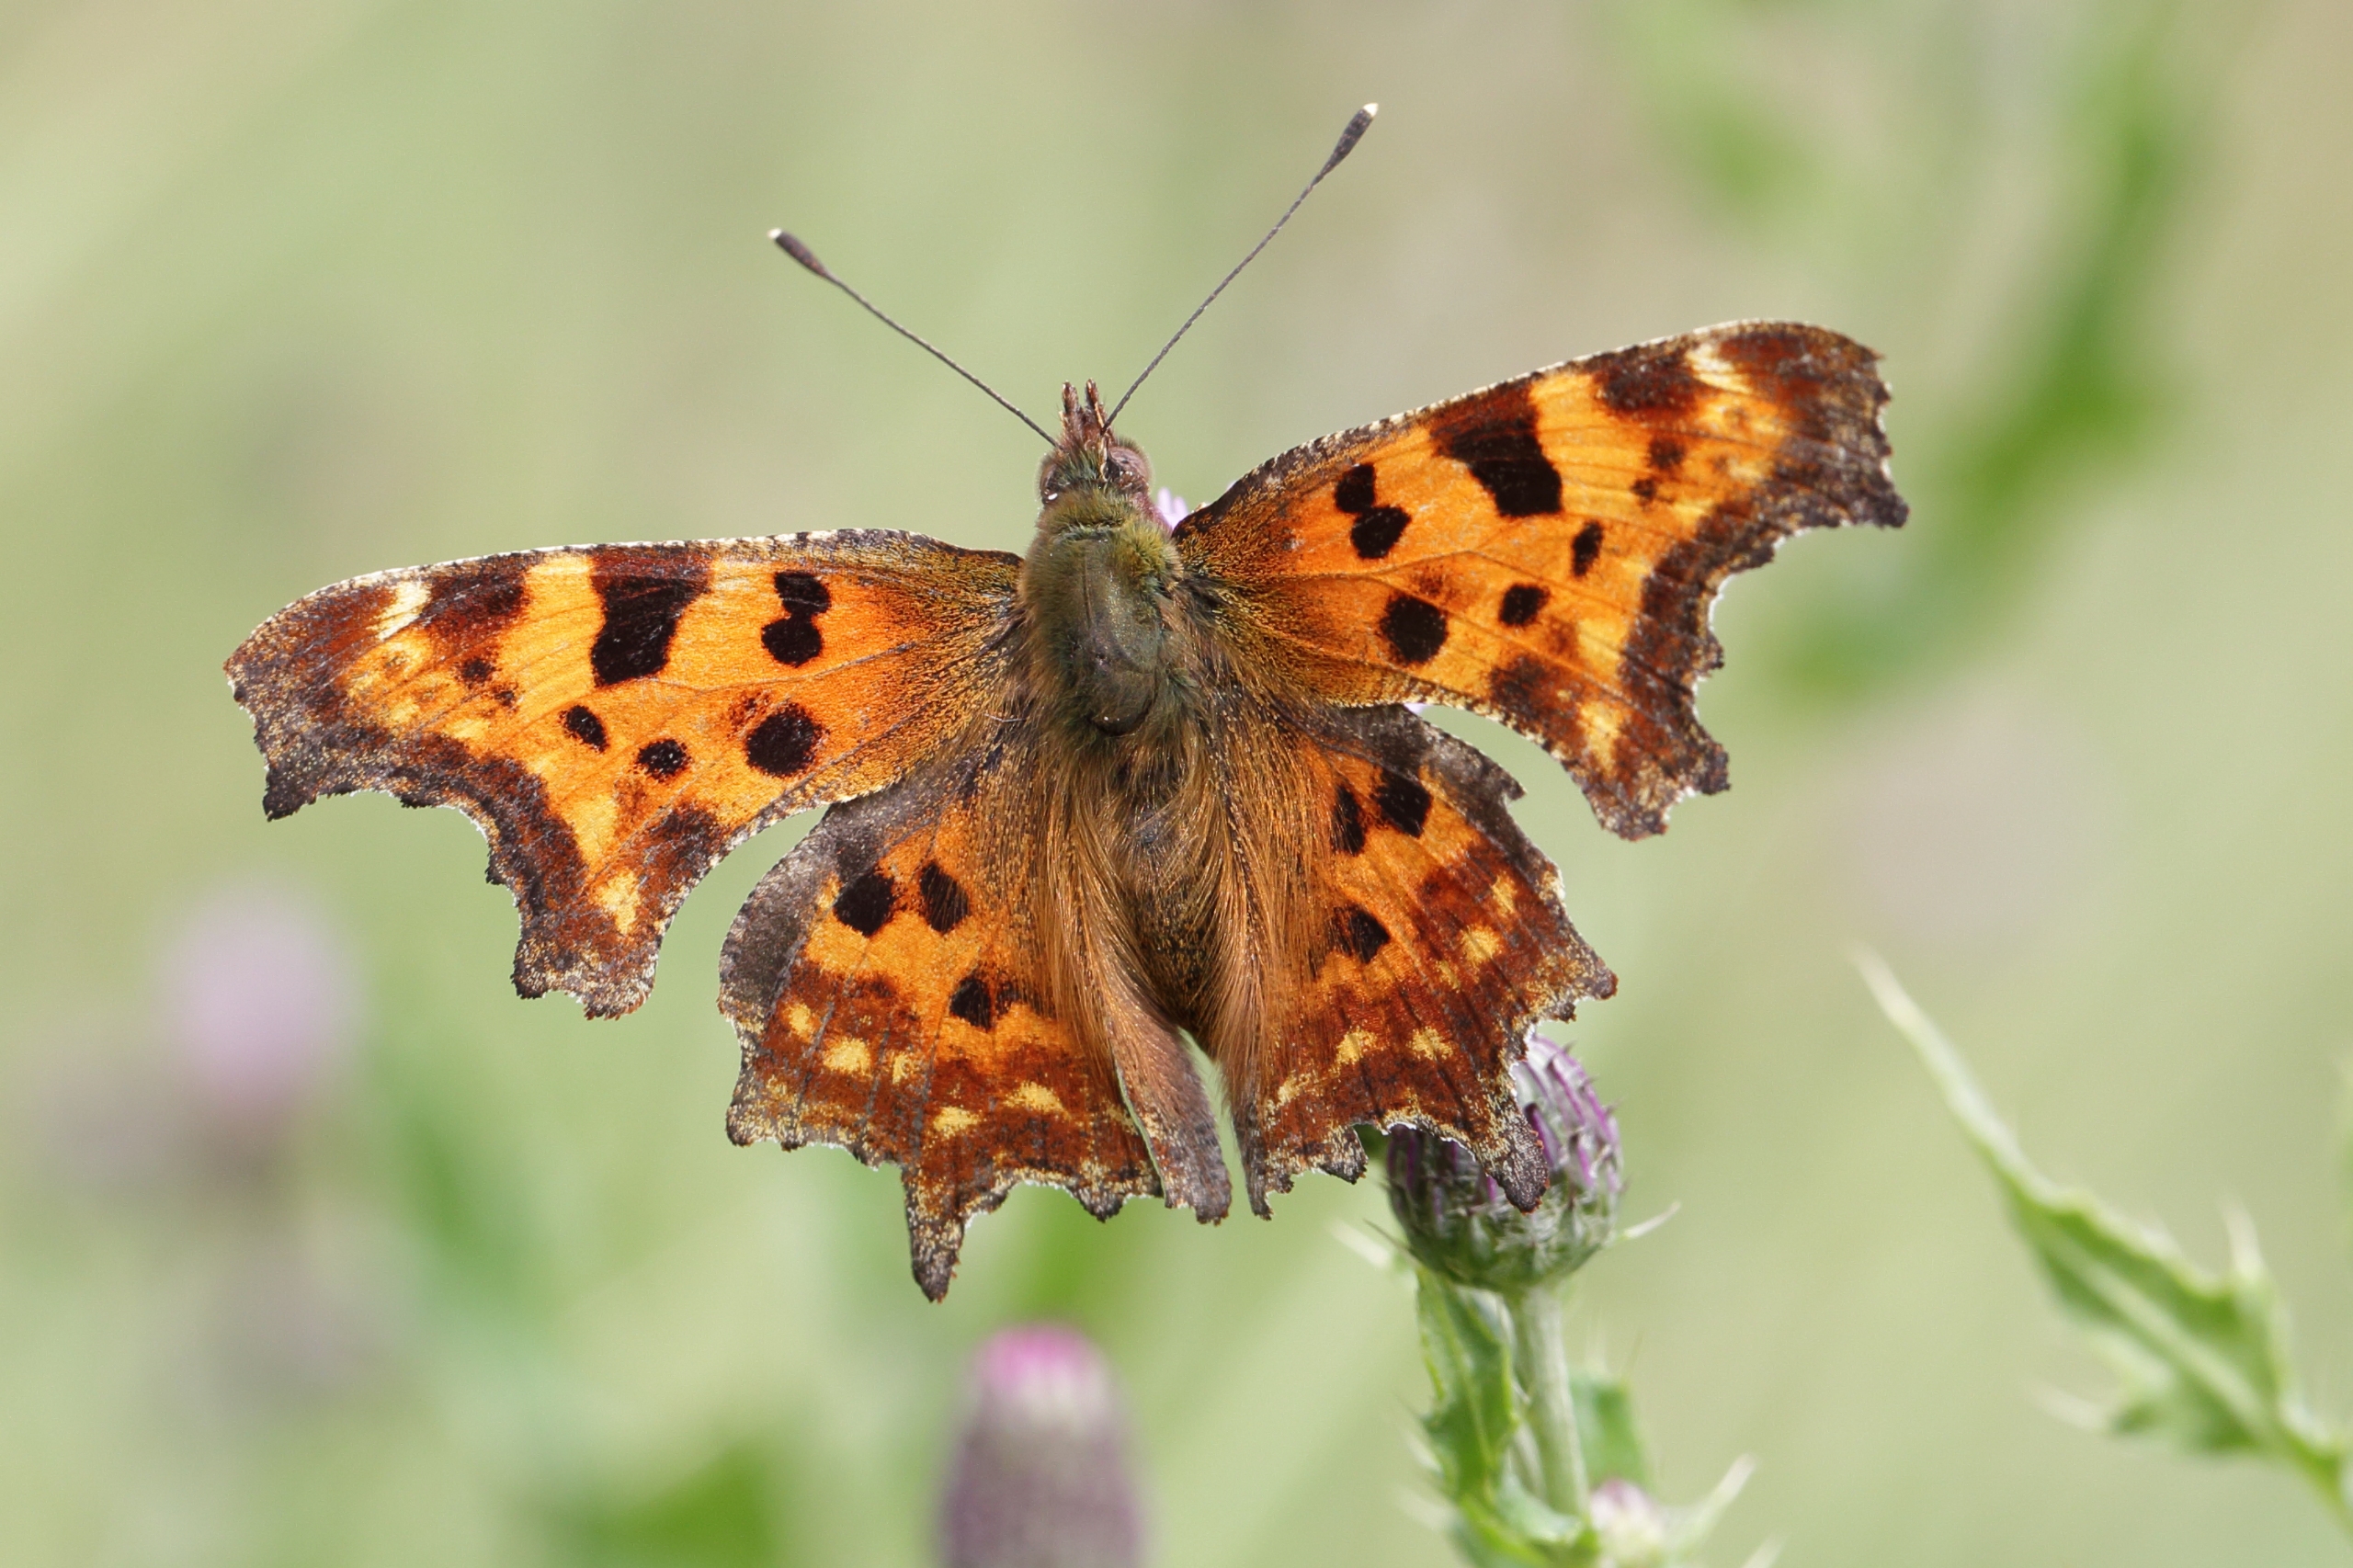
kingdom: Animalia
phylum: Arthropoda
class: Insecta
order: Lepidoptera
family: Nymphalidae
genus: Polygonia
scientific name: Polygonia c-album
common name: Det hvide C
